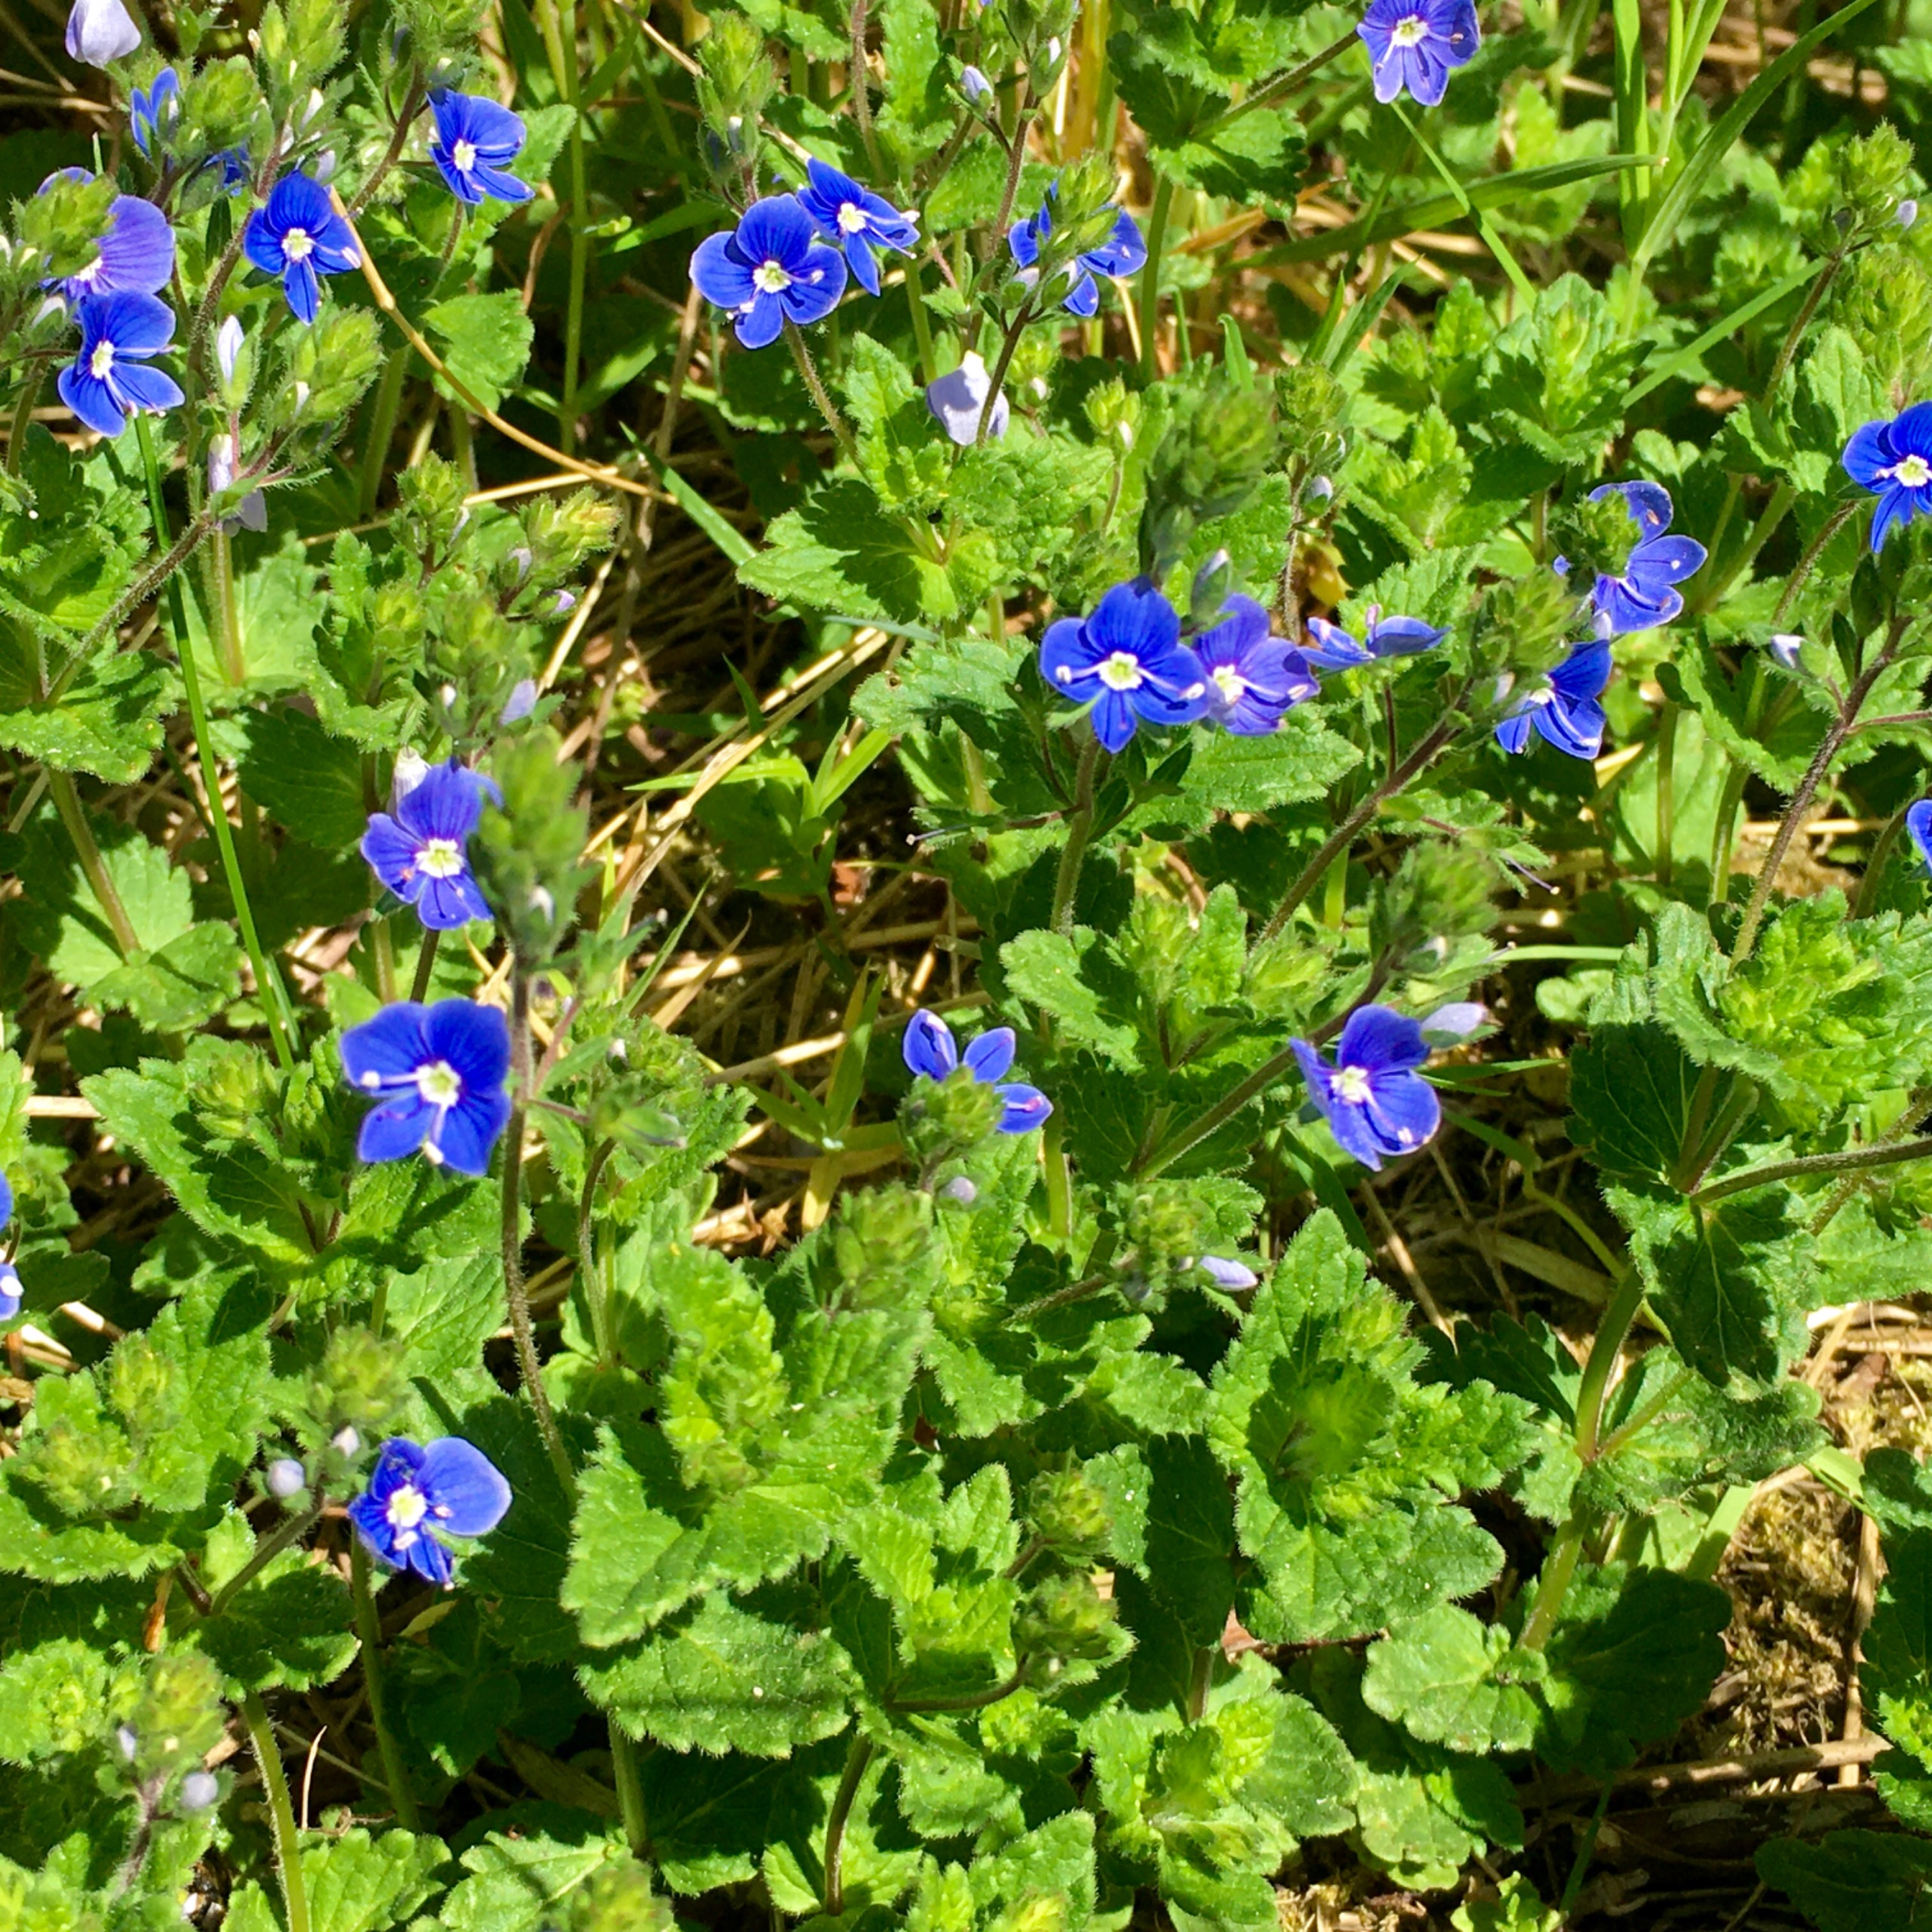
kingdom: Plantae
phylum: Tracheophyta
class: Magnoliopsida
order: Lamiales
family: Plantaginaceae
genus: Veronica
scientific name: Veronica chamaedrys
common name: Tveskægget ærenpris
